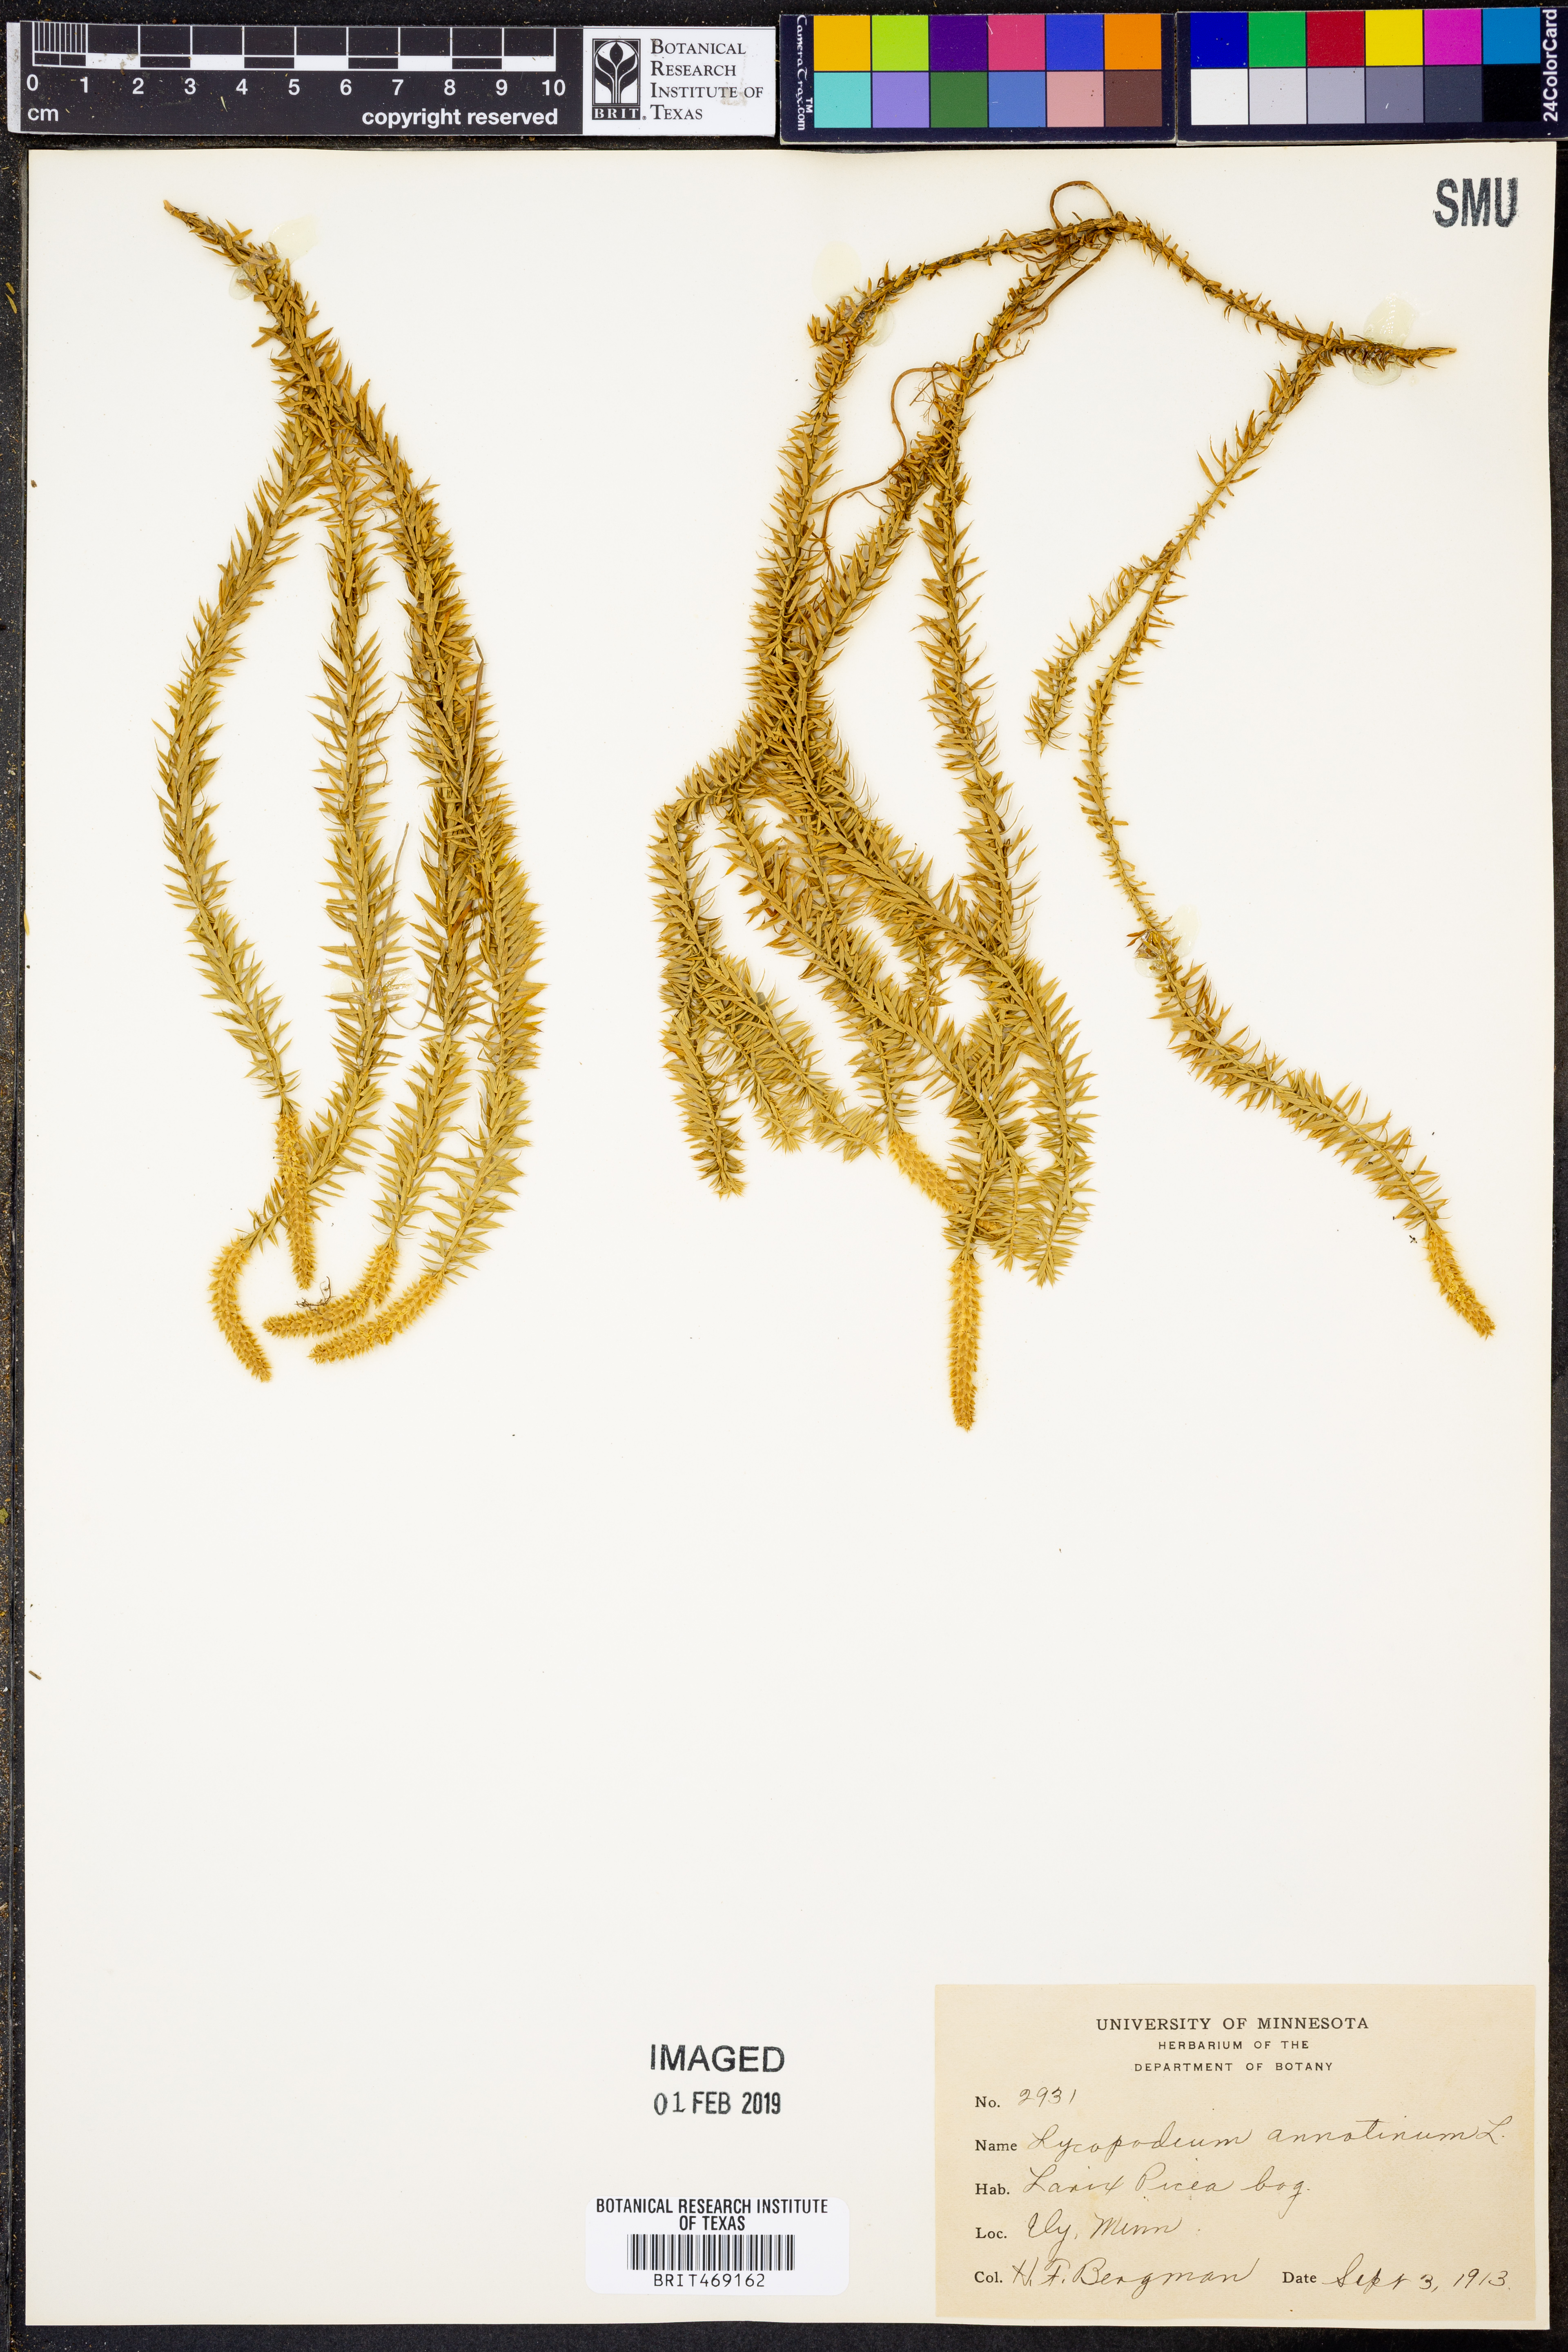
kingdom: Plantae
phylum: Tracheophyta
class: Lycopodiopsida
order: Lycopodiales
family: Lycopodiaceae
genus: Spinulum
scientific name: Spinulum annotinum
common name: Interrupted club-moss
